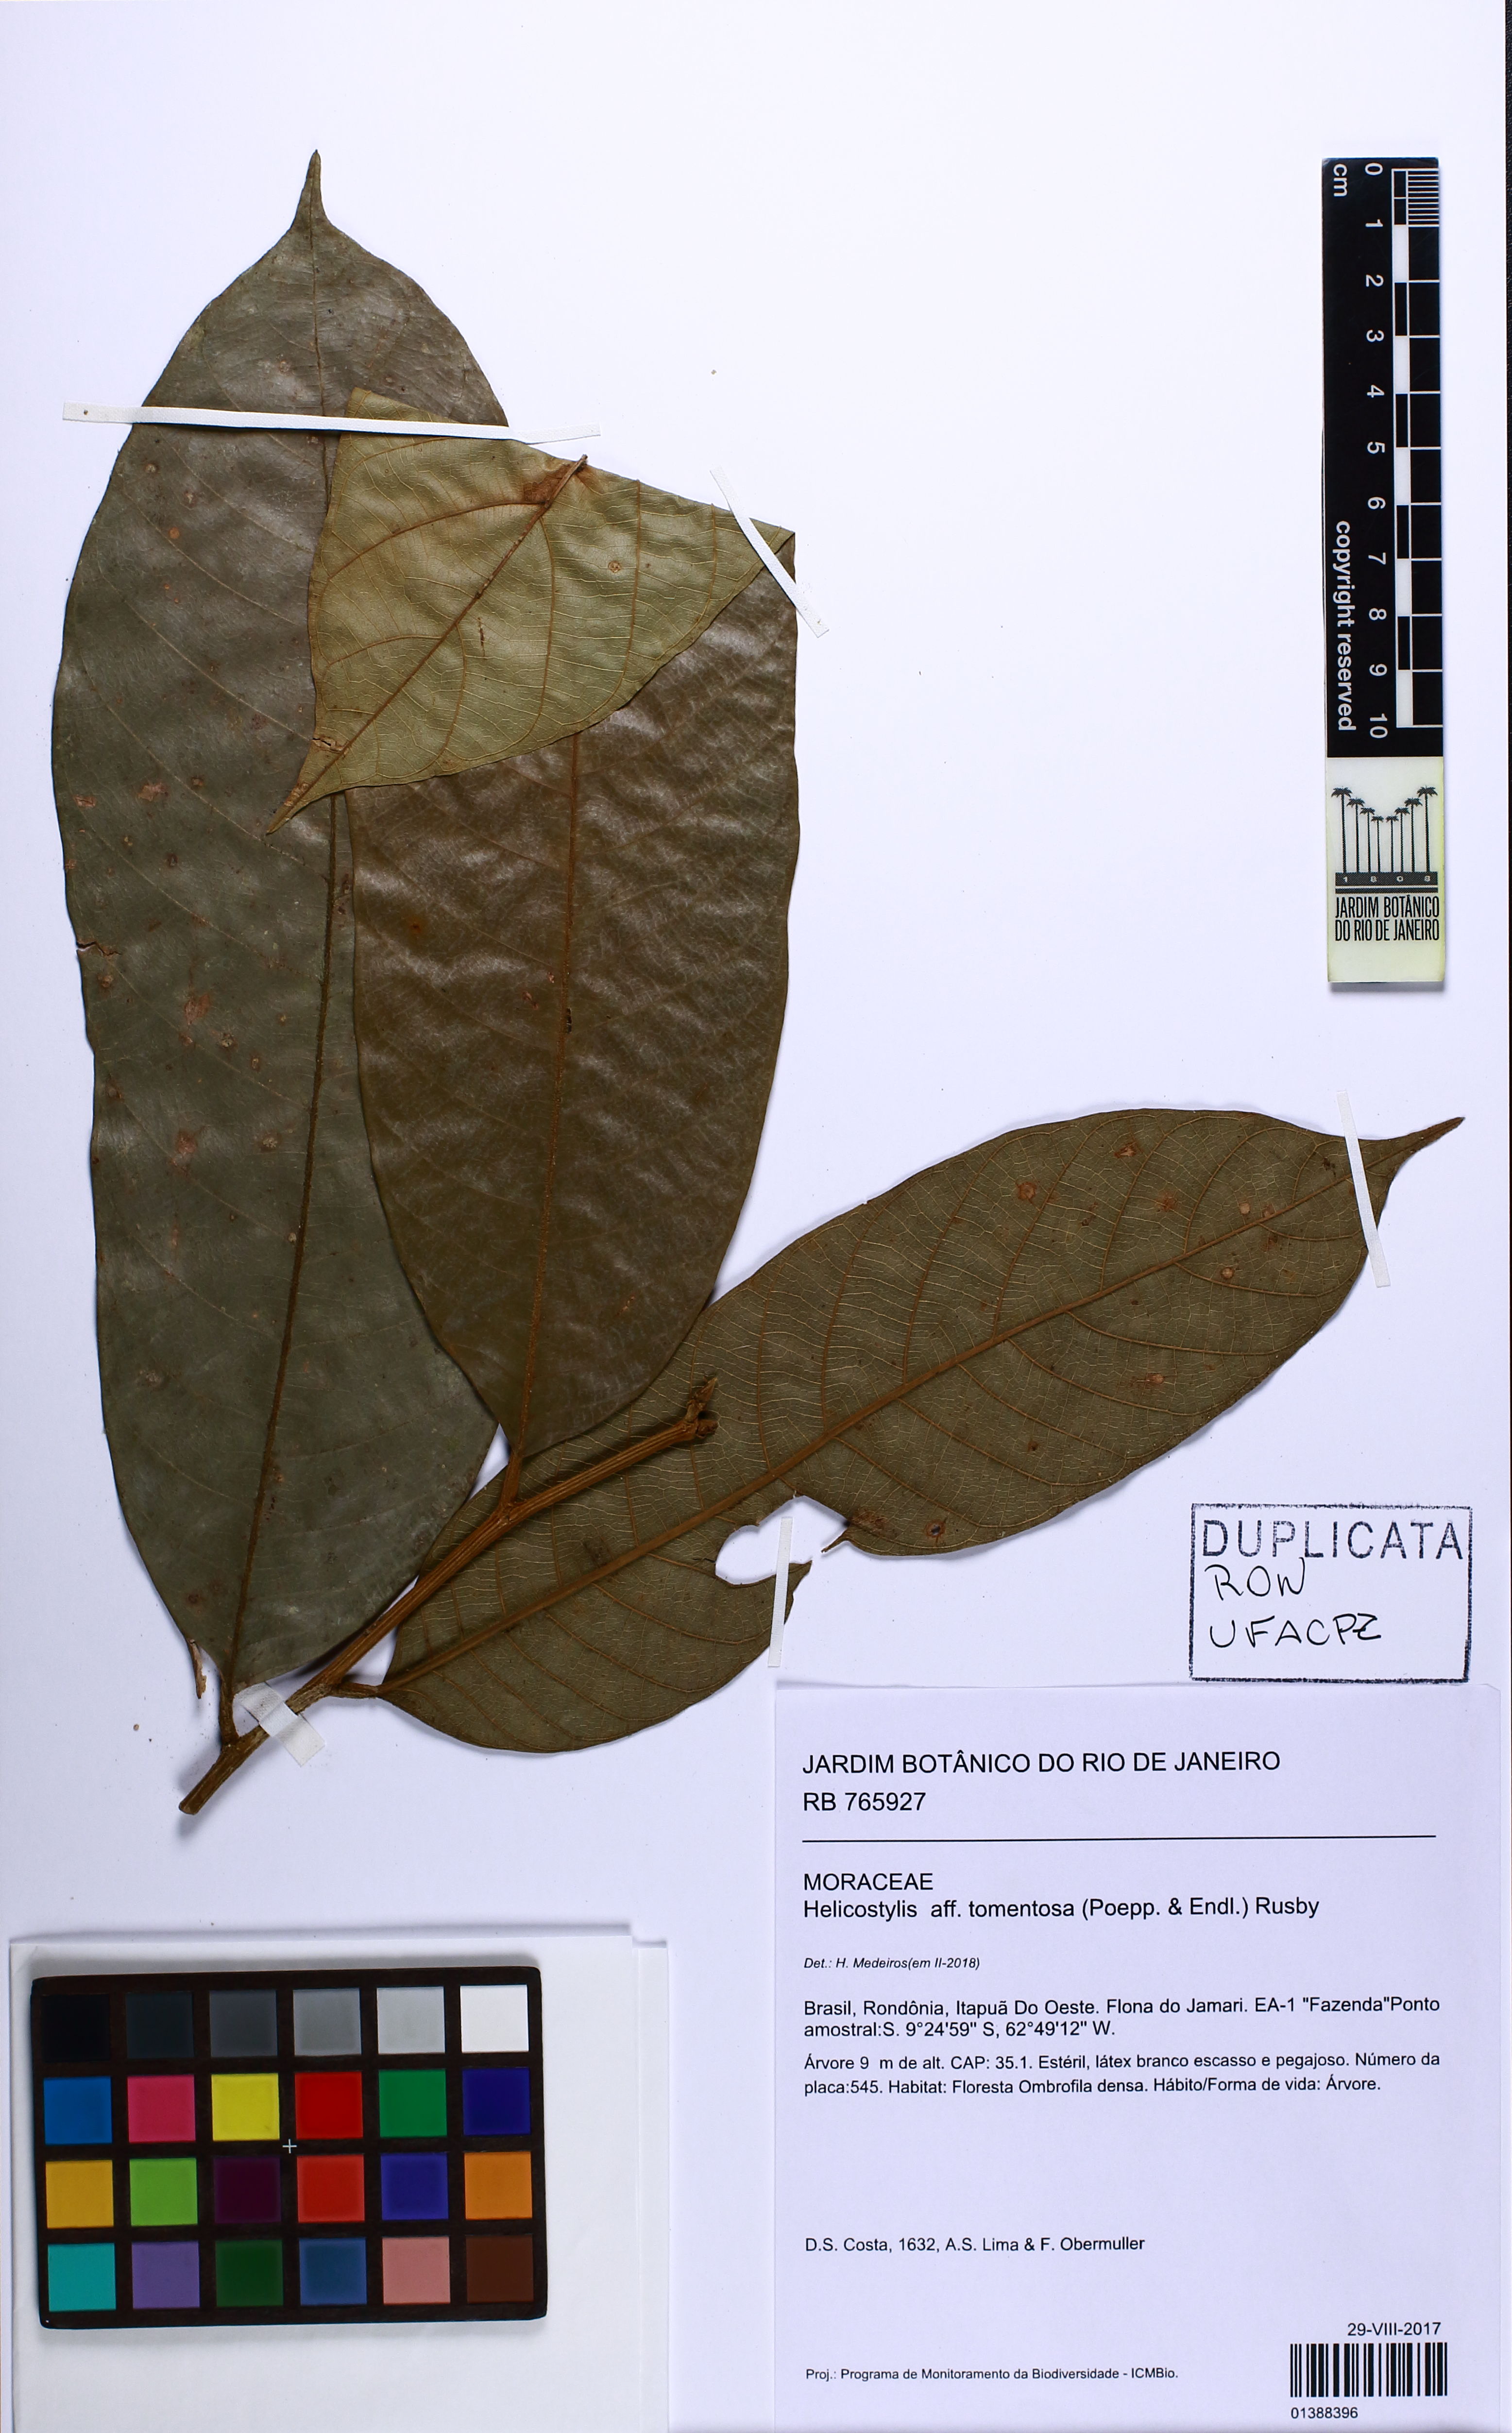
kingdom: Plantae
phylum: Tracheophyta
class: Magnoliopsida
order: Rosales
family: Moraceae
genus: Helicostylis
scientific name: Helicostylis tomentosa
